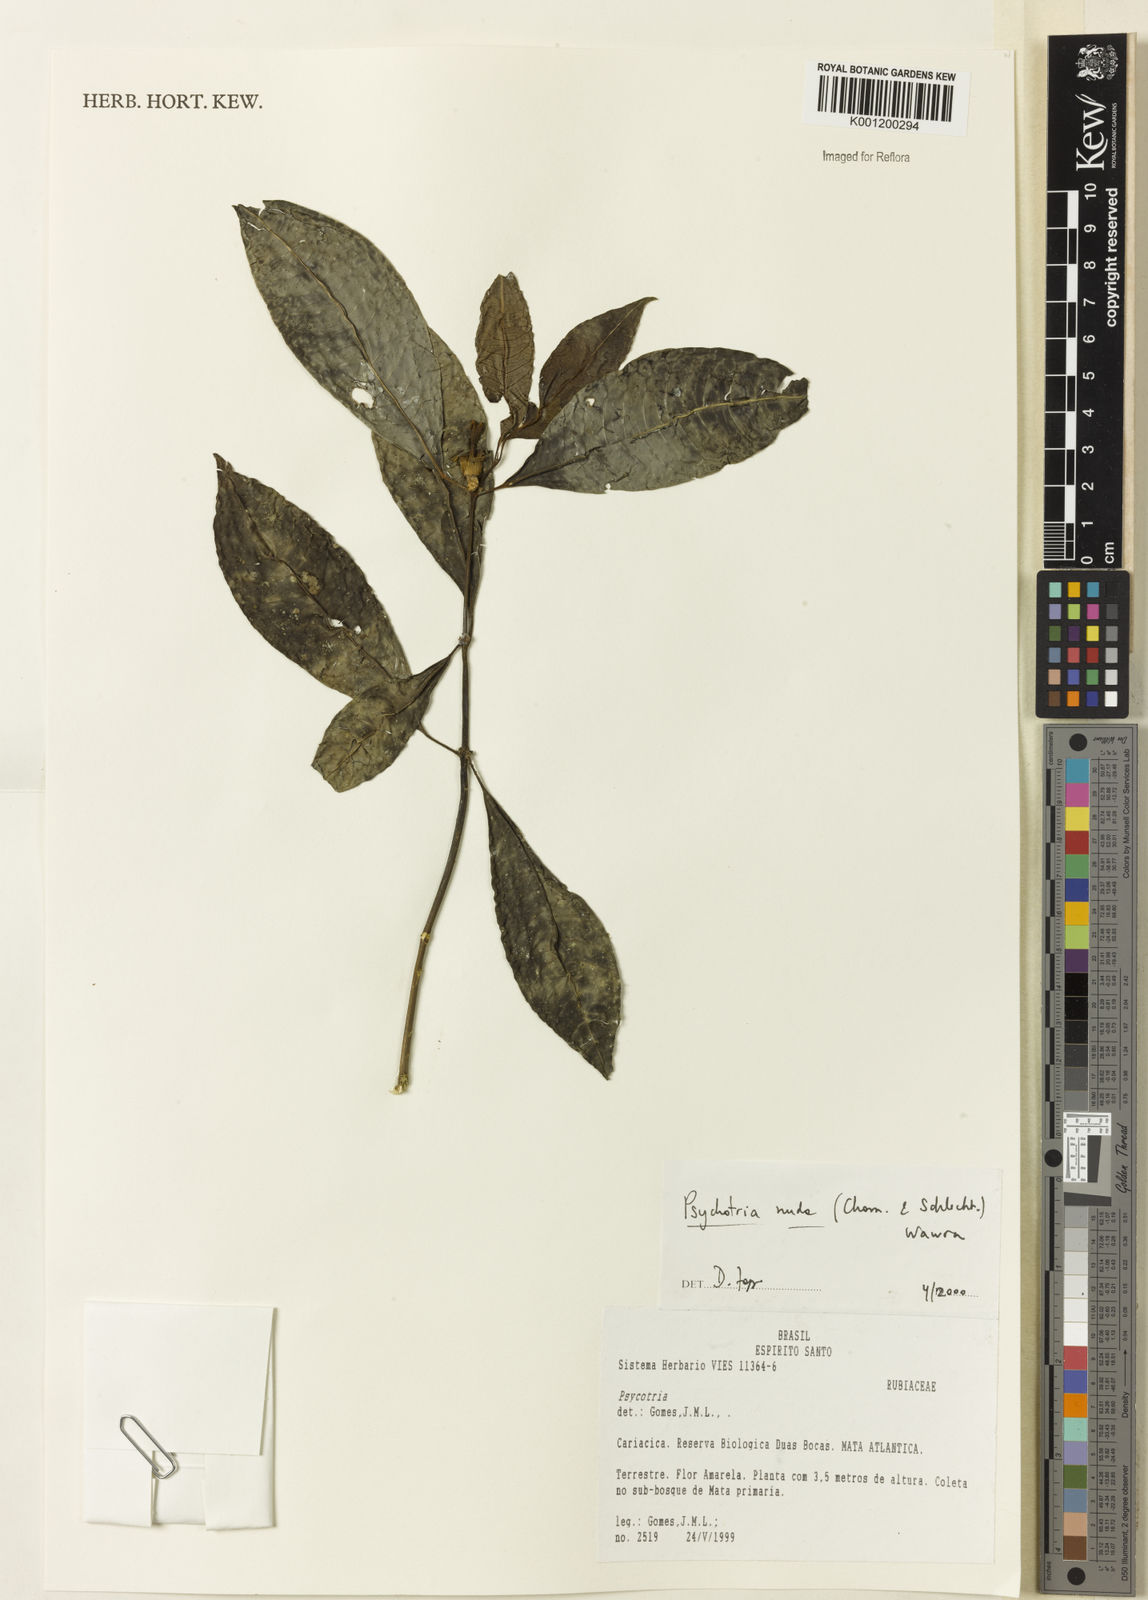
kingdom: Plantae
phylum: Tracheophyta
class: Magnoliopsida
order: Gentianales
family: Rubiaceae
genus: Psychotria
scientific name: Psychotria nuda
